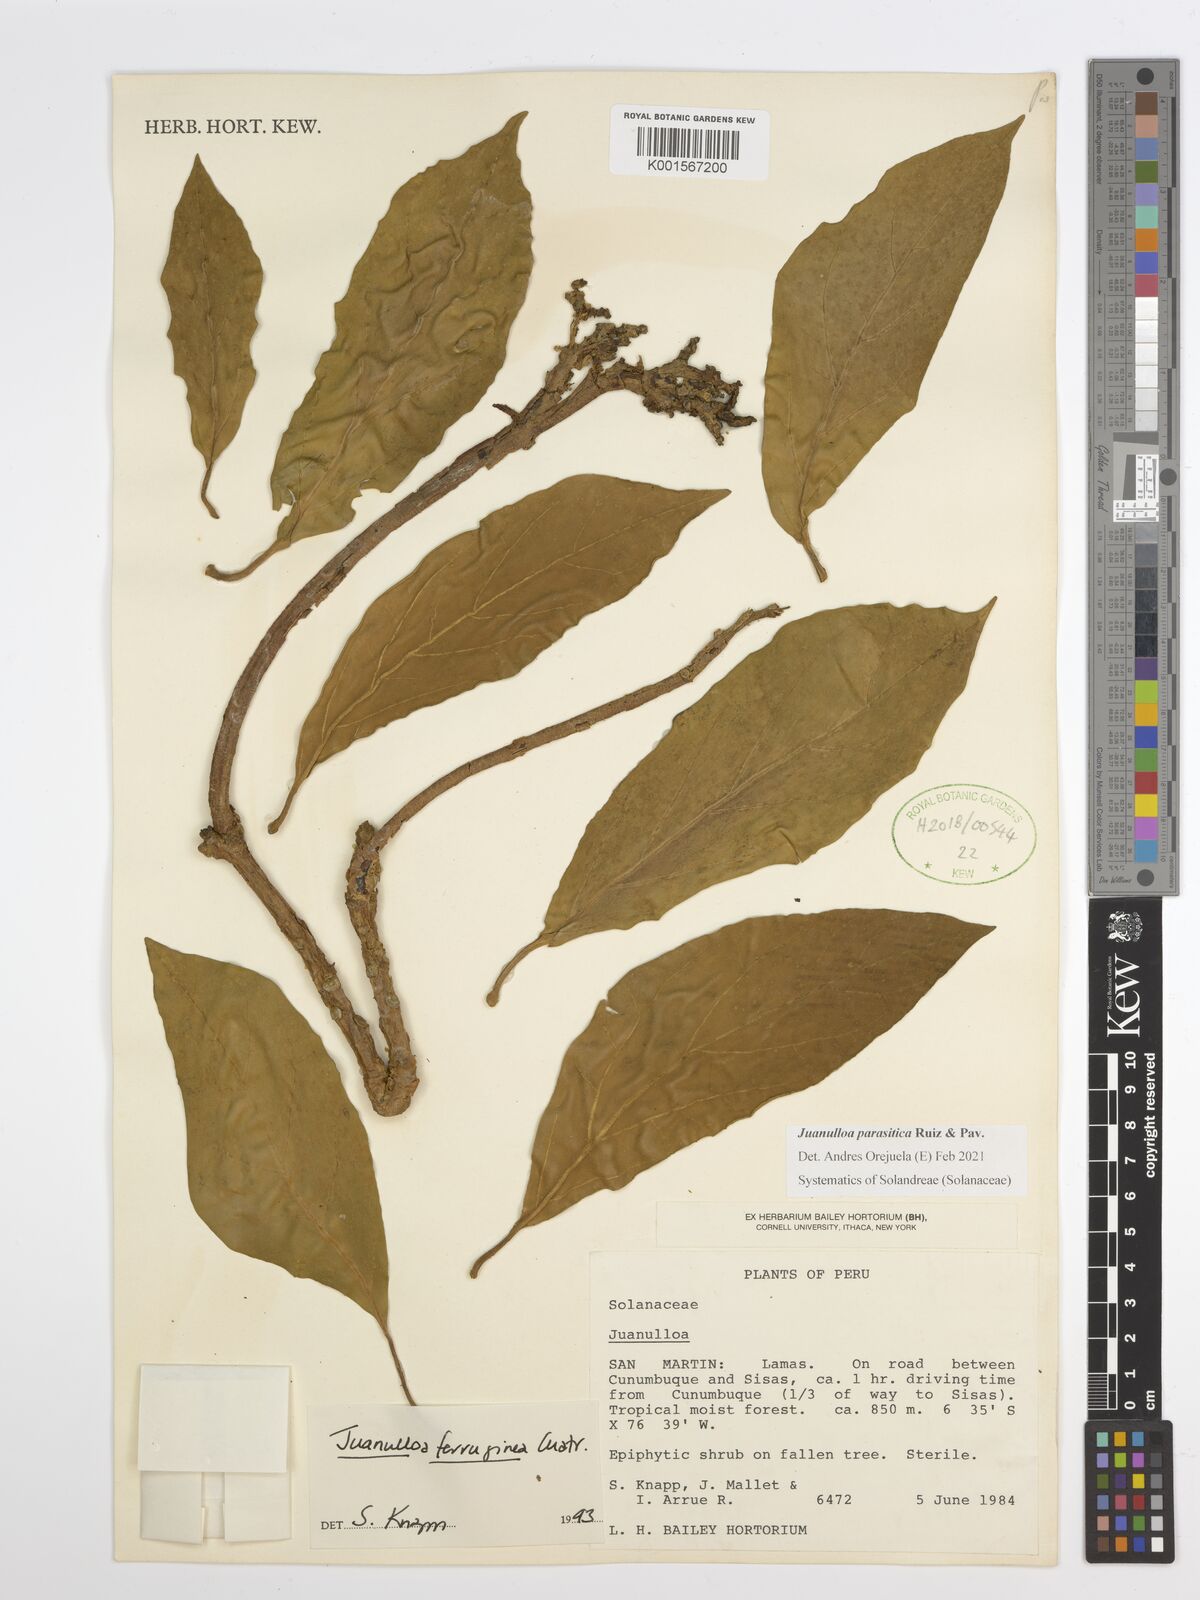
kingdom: Plantae
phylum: Tracheophyta
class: Magnoliopsida
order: Solanales
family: Solanaceae
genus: Juanulloa
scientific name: Juanulloa parasitica
